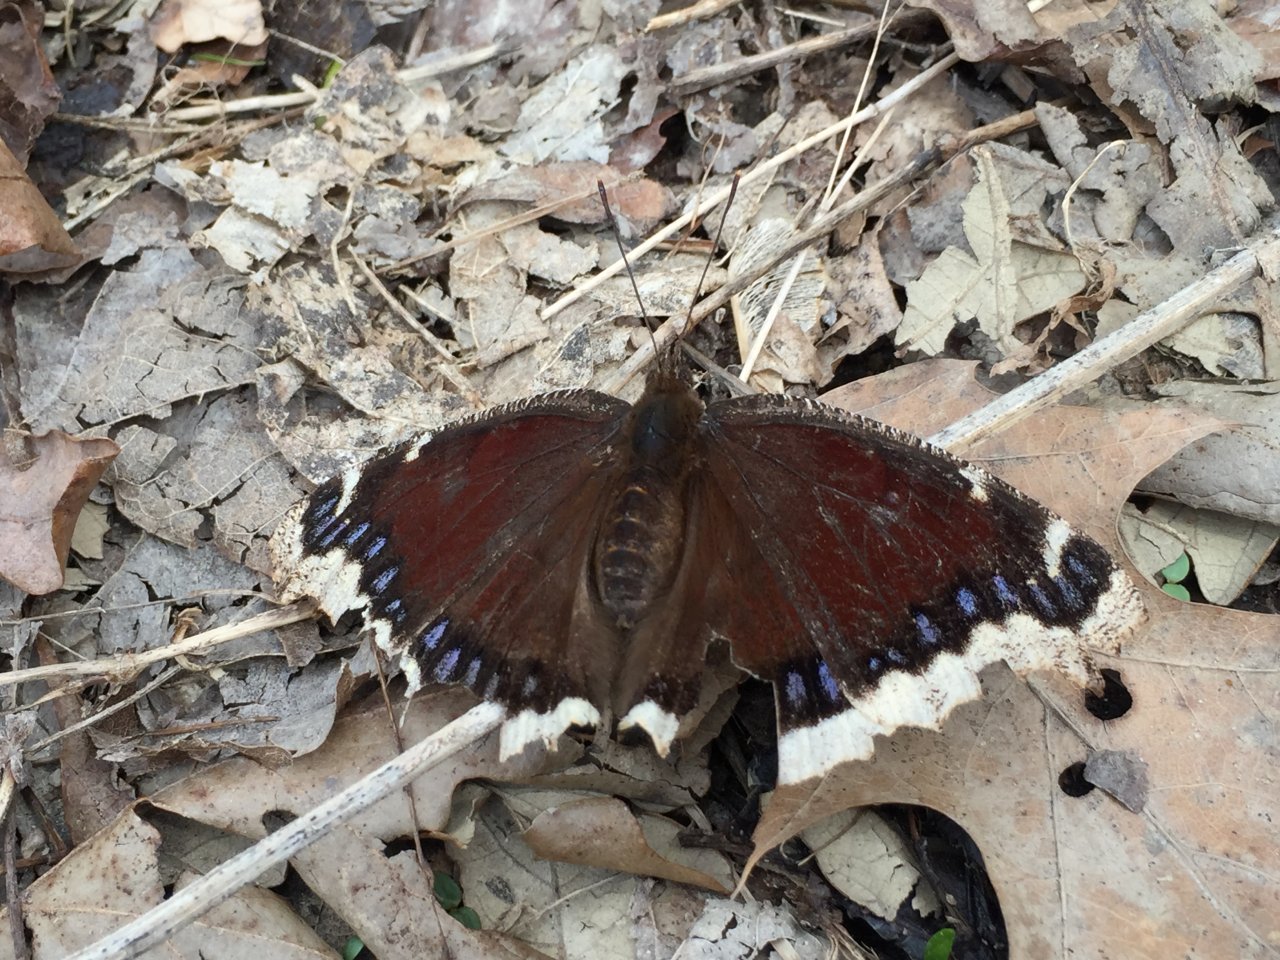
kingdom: Animalia
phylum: Arthropoda
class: Insecta
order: Lepidoptera
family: Nymphalidae
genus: Nymphalis
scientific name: Nymphalis antiopa
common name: Mourning Cloak
